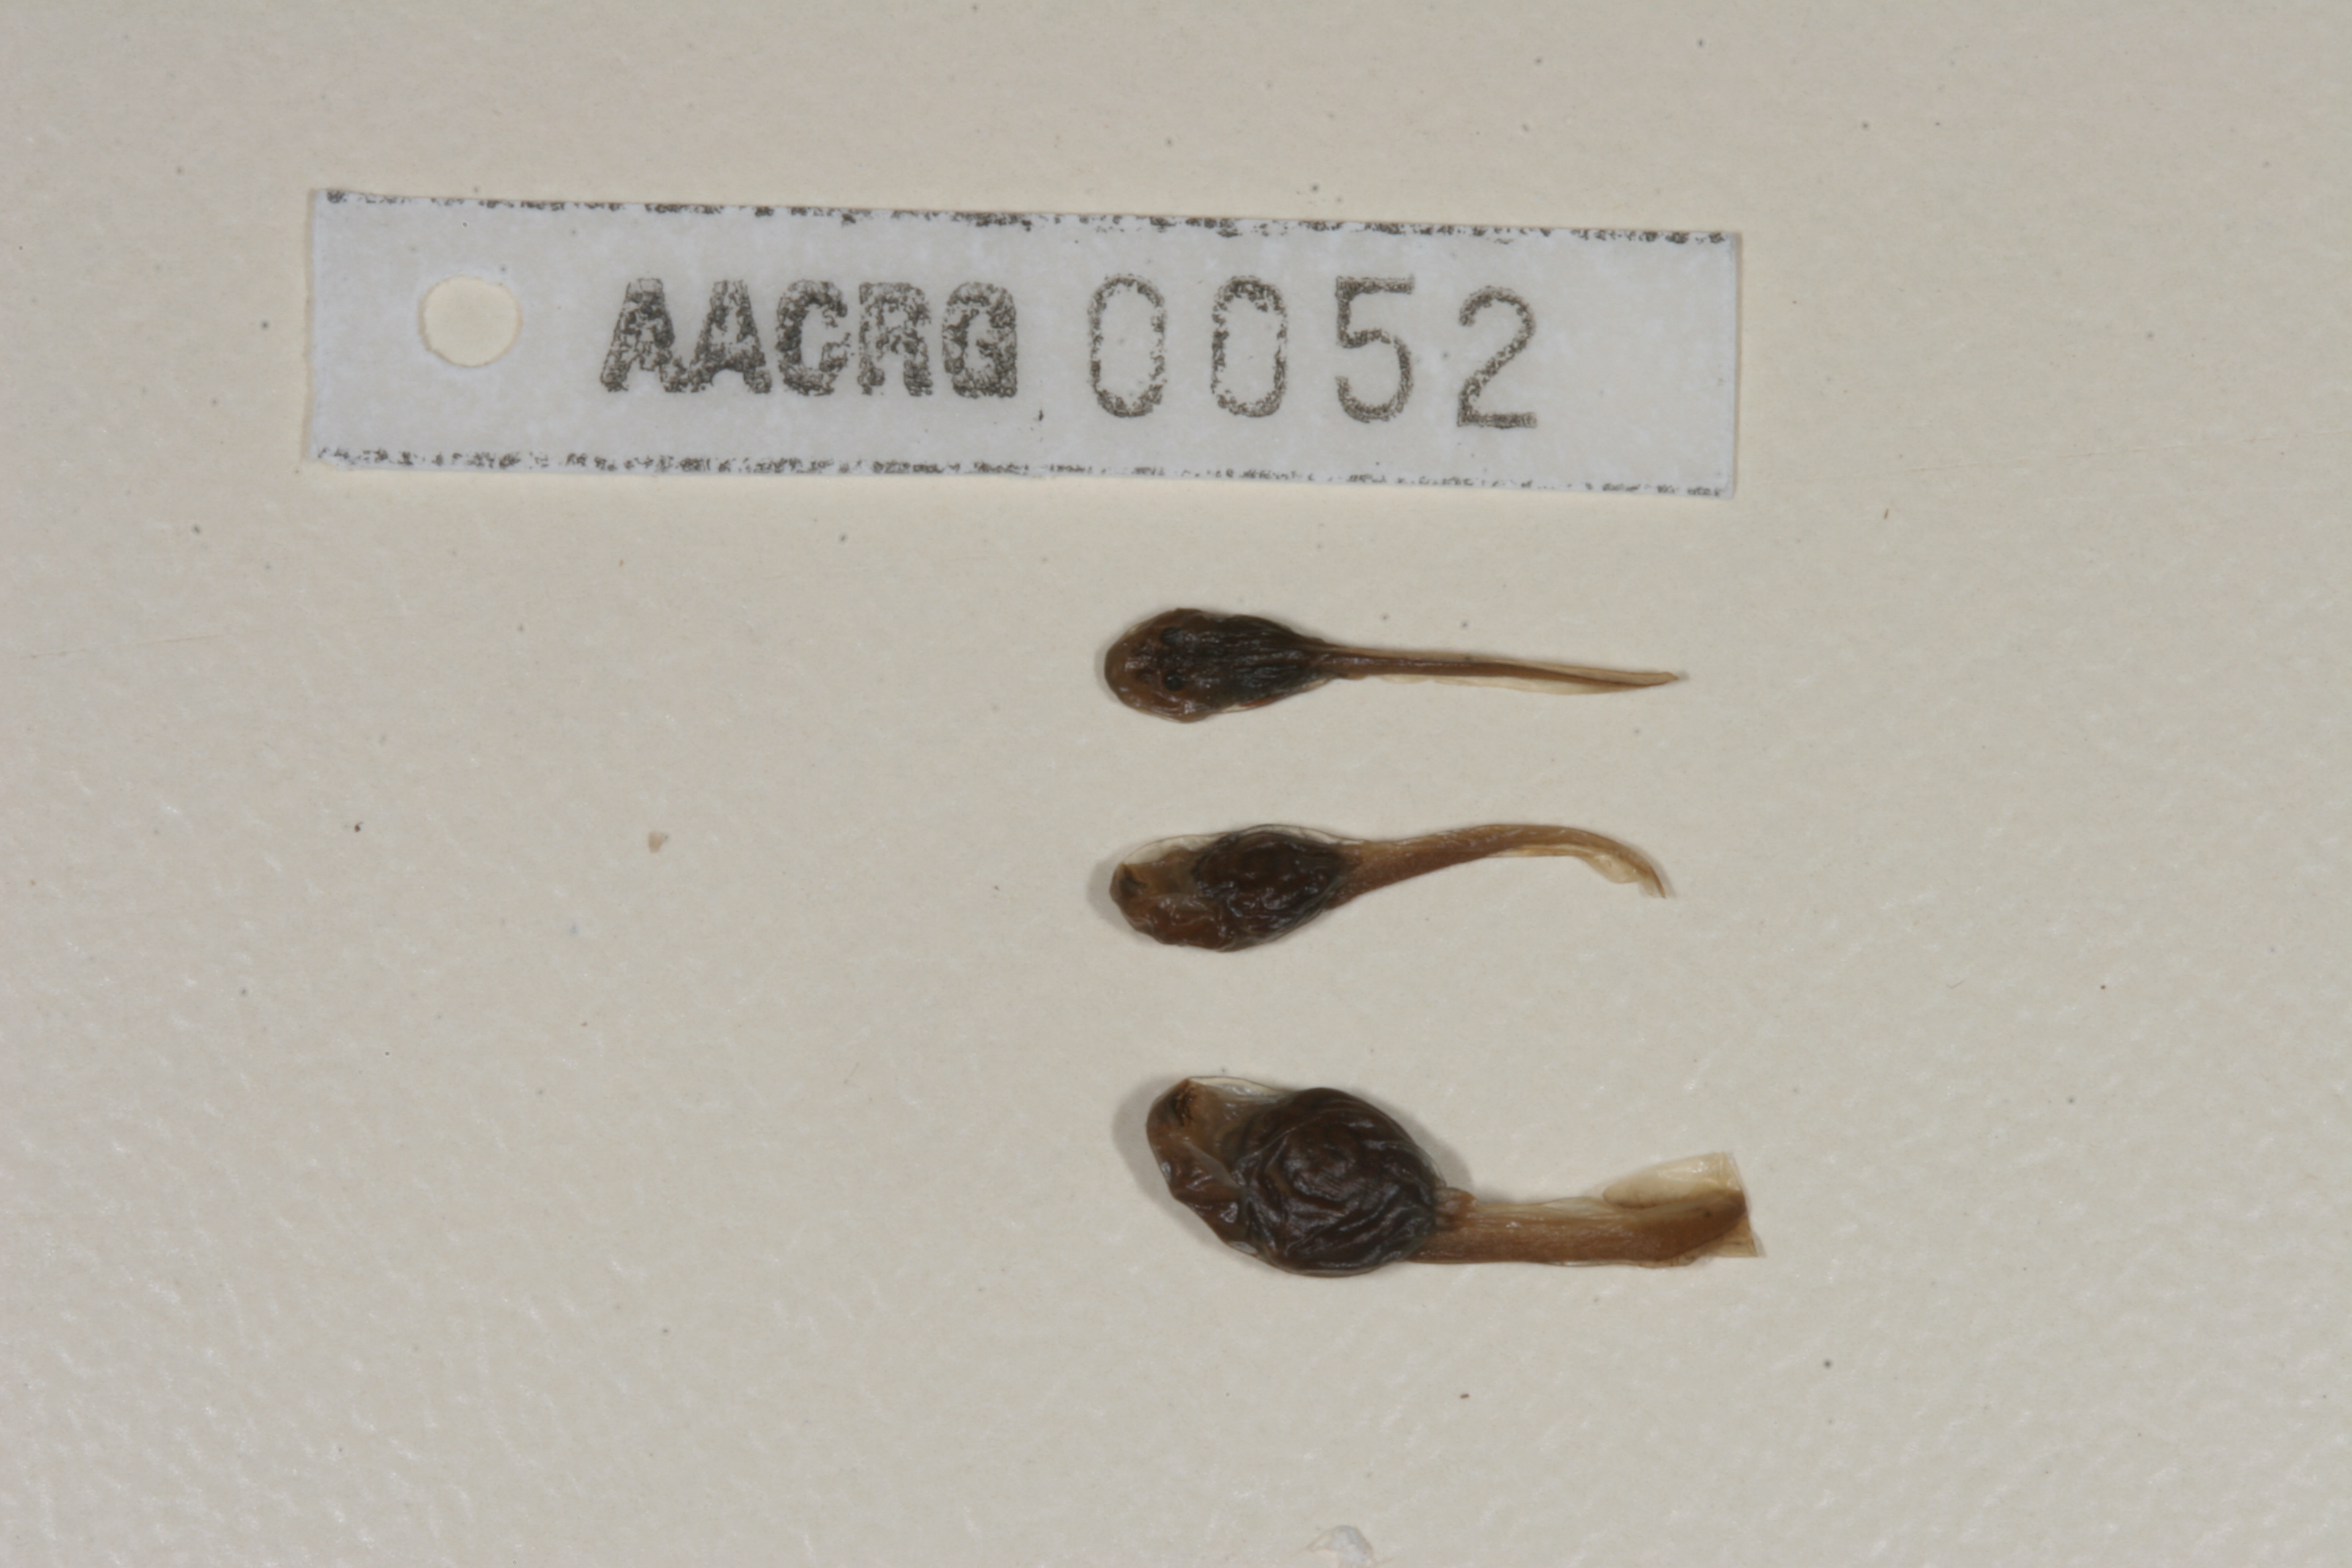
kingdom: Animalia
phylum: Chordata
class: Amphibia
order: Anura
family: Bufonidae
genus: Sclerophrys
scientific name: Sclerophrys gutturalis
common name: African common toad
